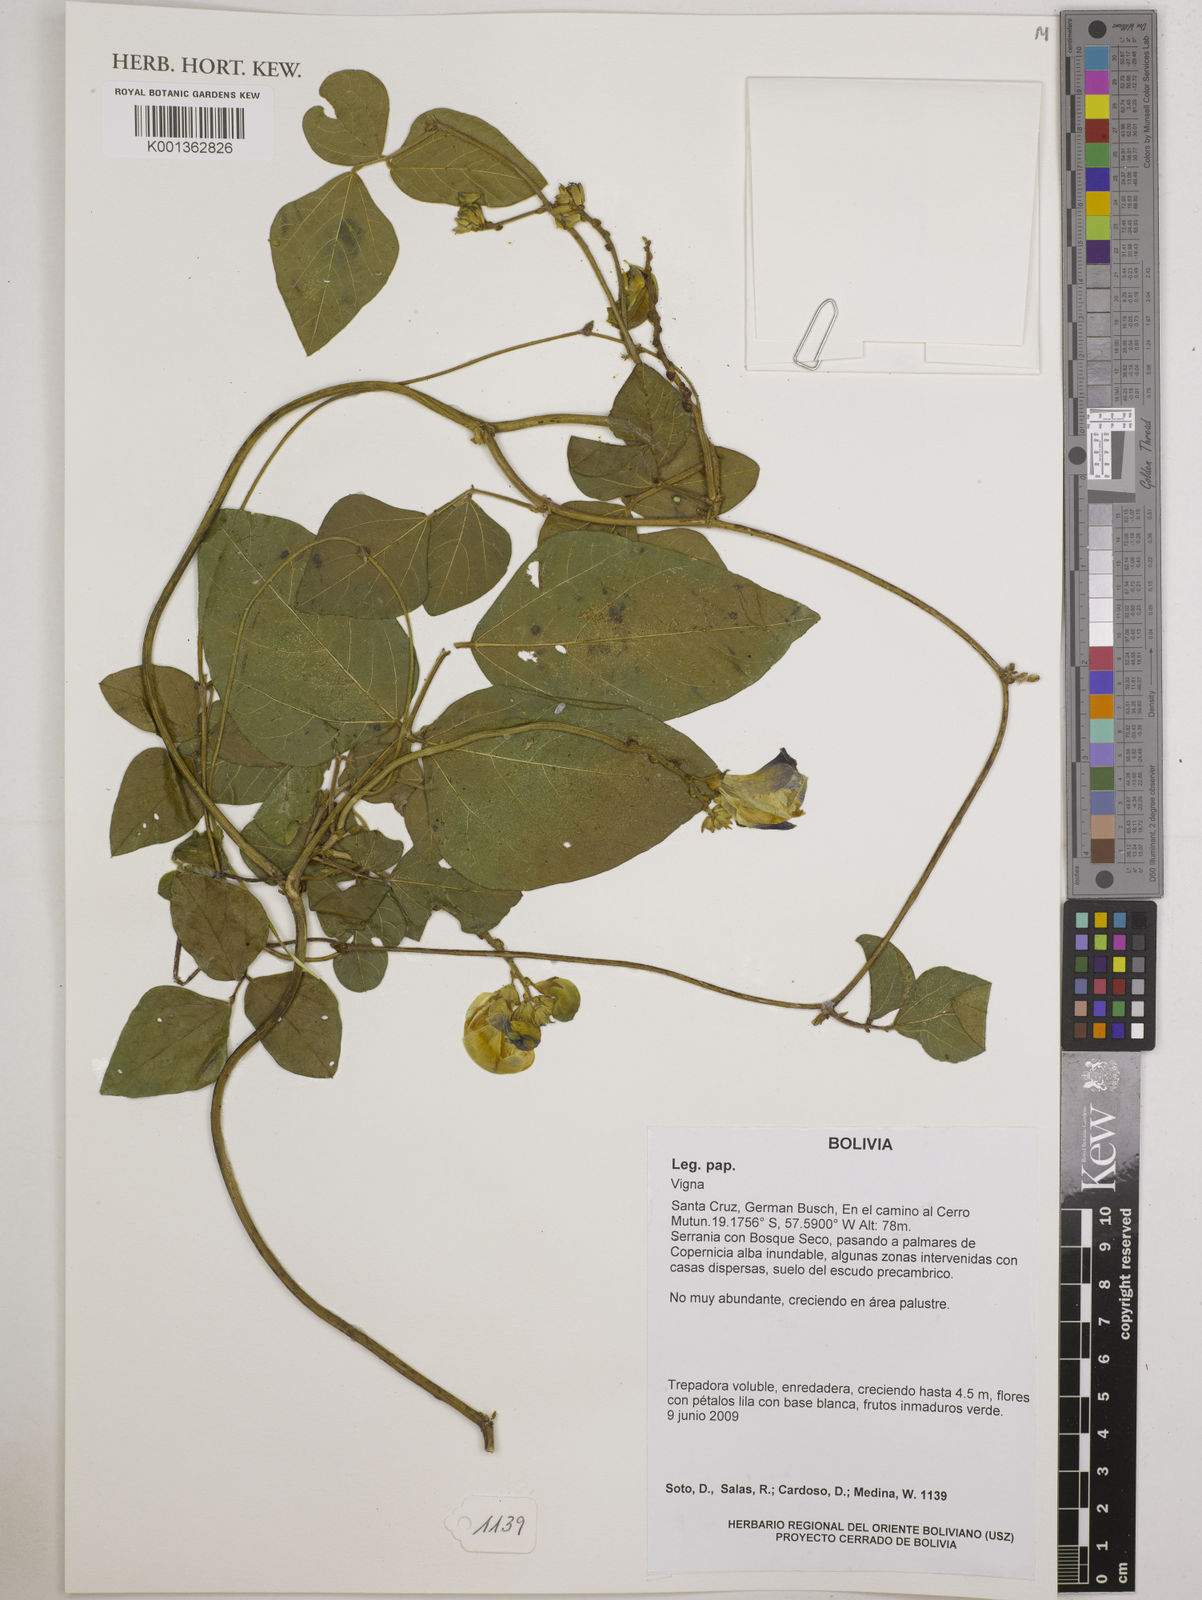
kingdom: Plantae
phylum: Tracheophyta
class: Magnoliopsida
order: Fabales
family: Fabaceae
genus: Vigna
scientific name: Vigna
